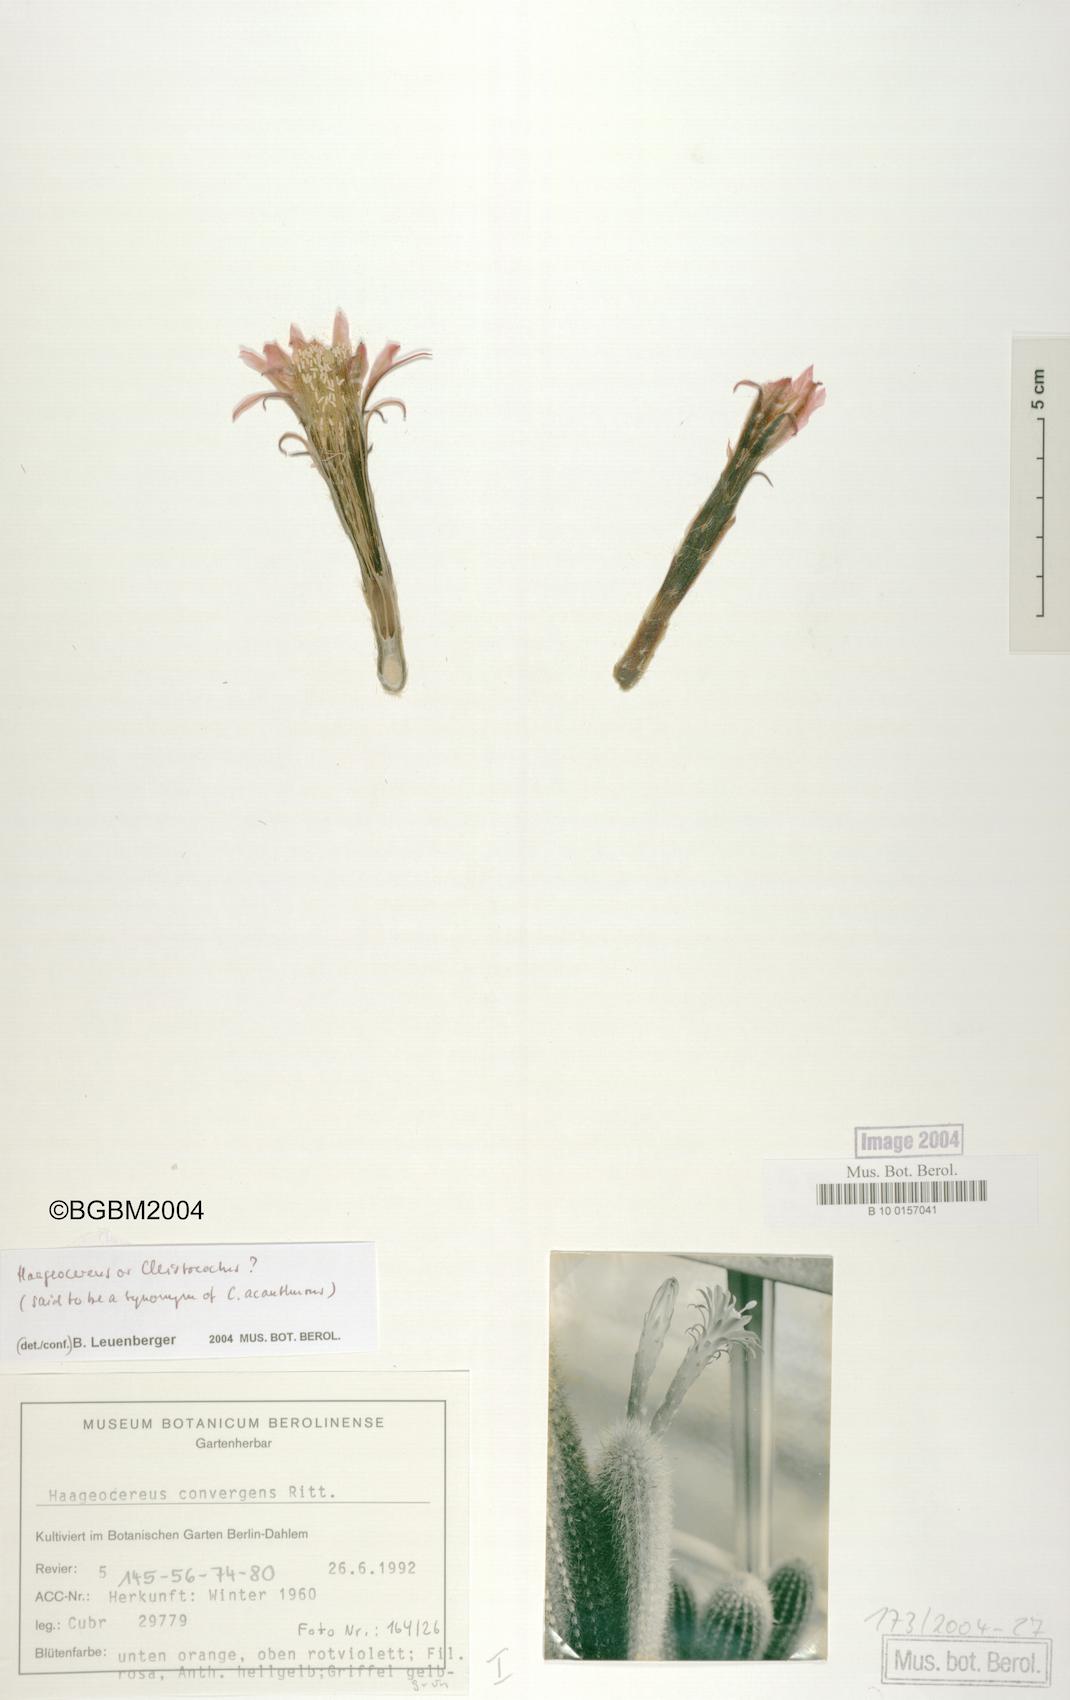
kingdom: Plantae
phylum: Tracheophyta
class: Magnoliopsida
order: Caryophyllales
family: Cactaceae
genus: Borzicactus
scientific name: Borzicactus acanthurus
